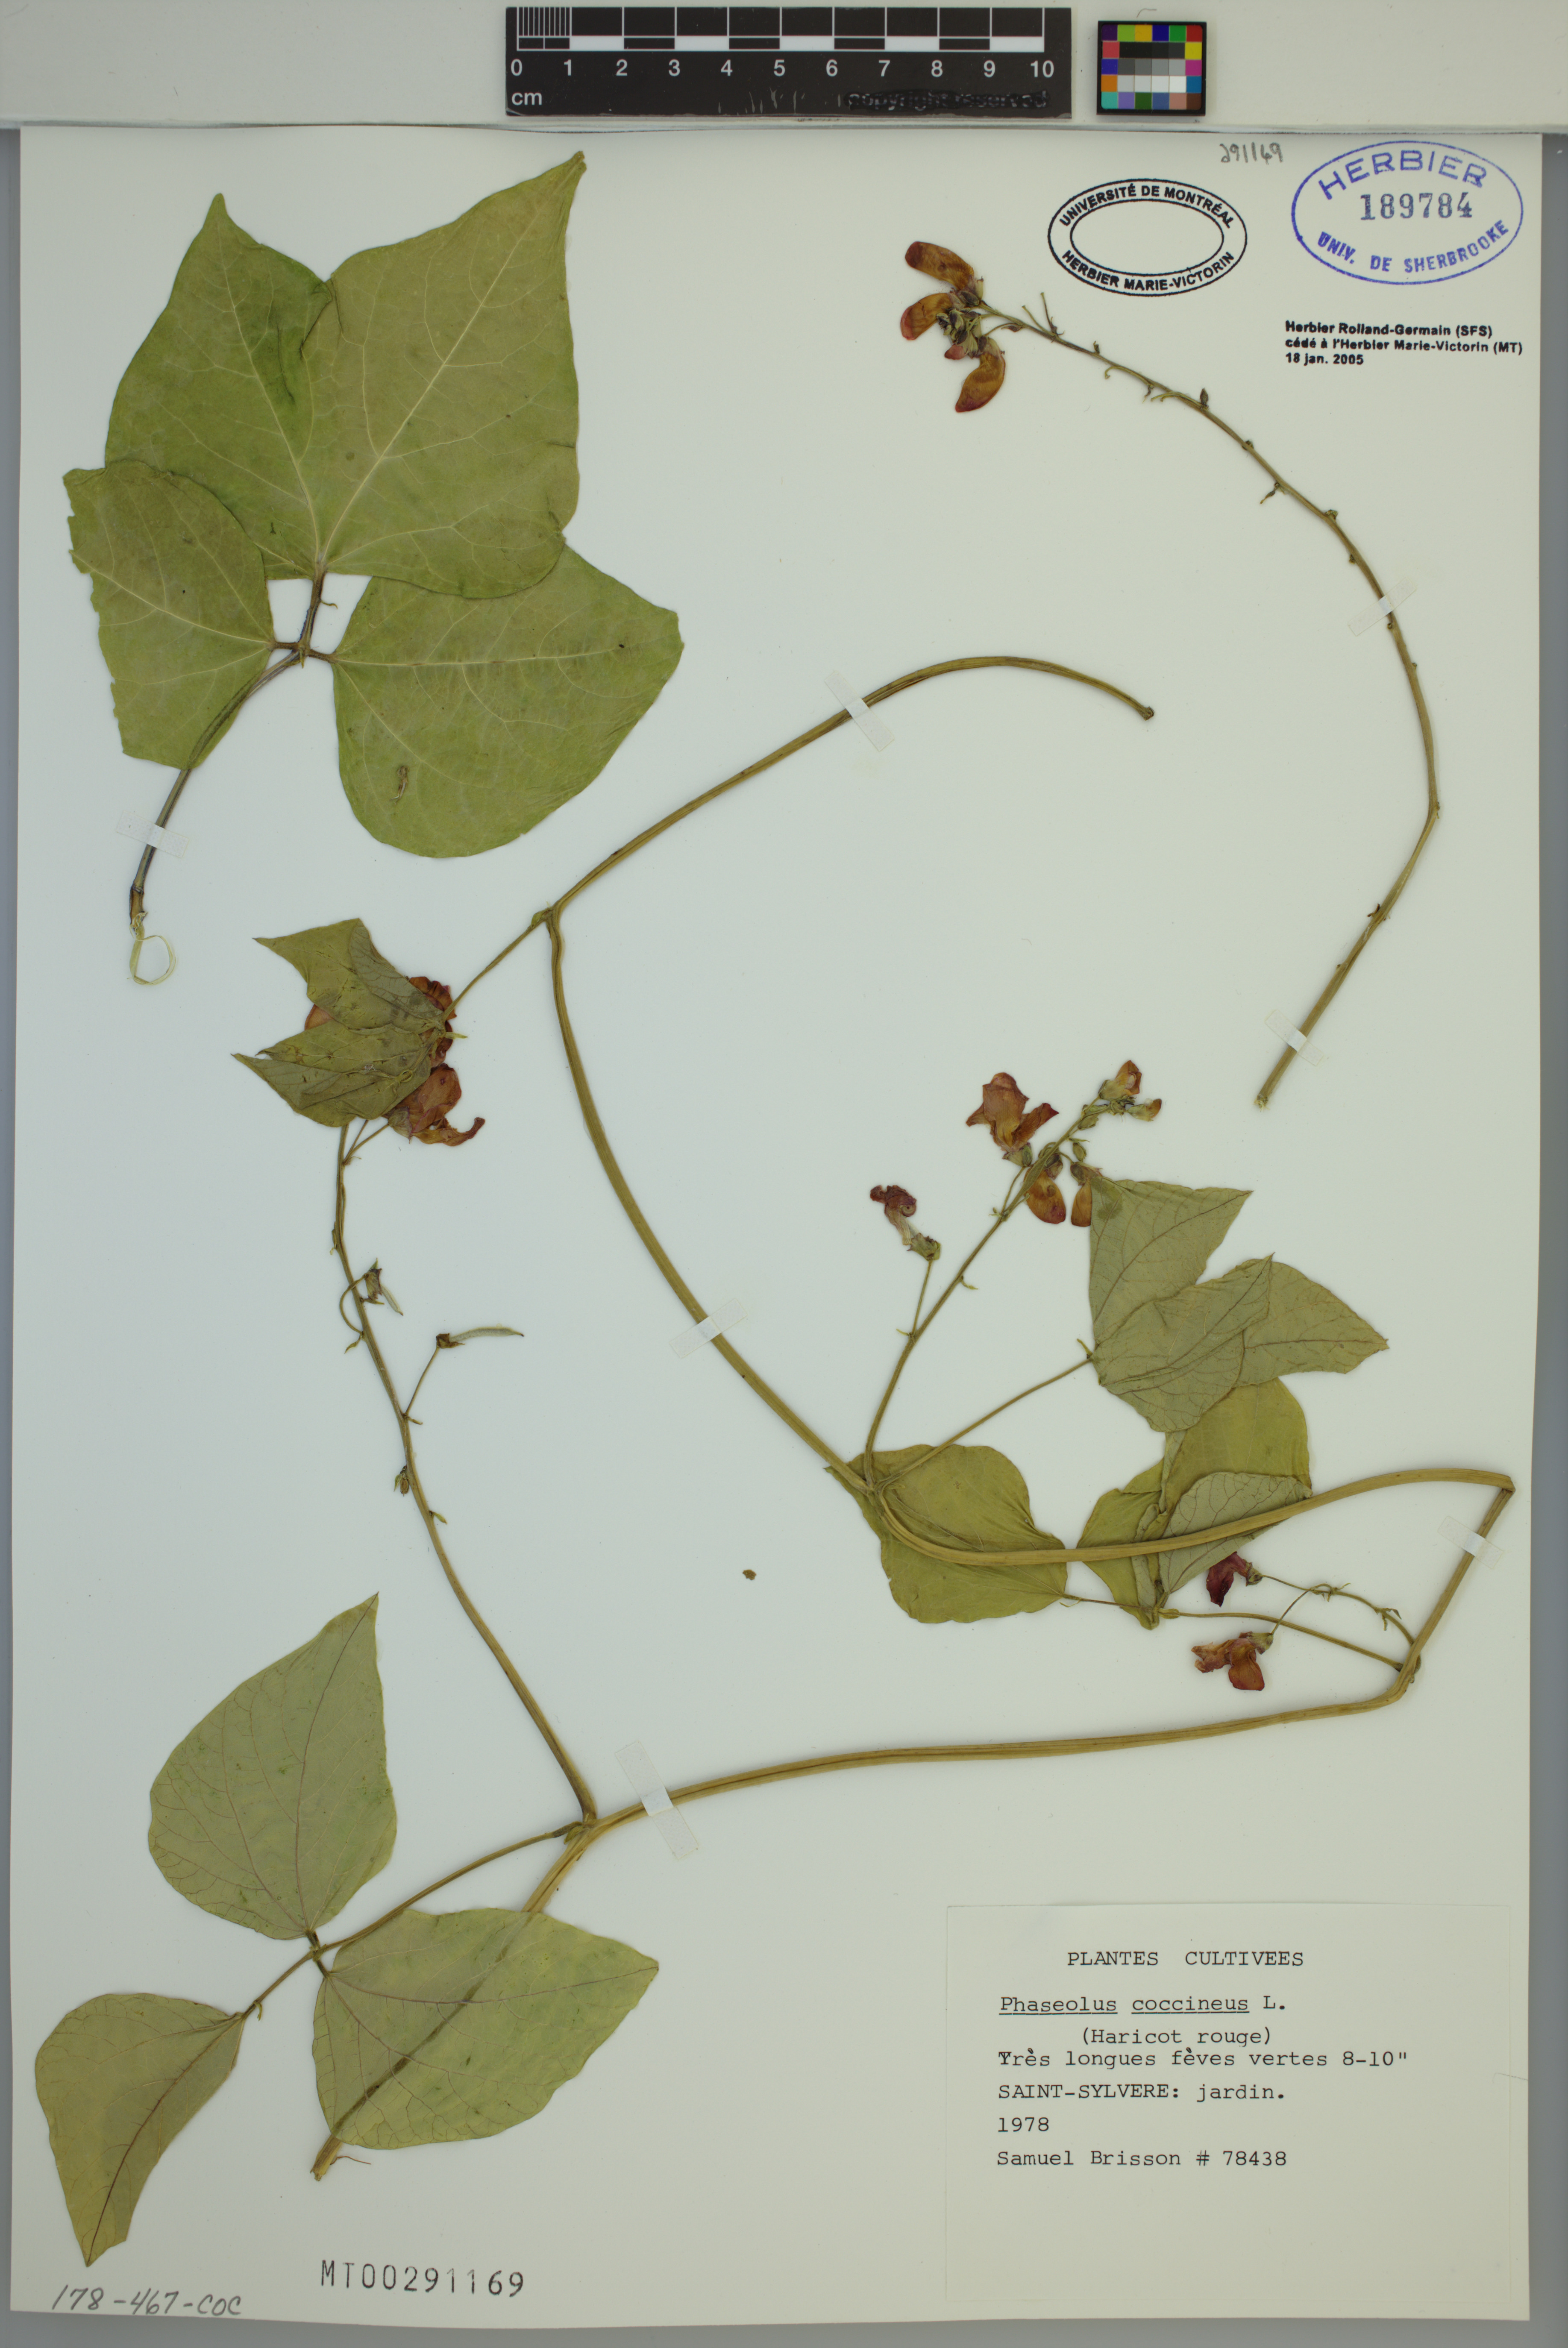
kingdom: Plantae
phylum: Tracheophyta
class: Magnoliopsida
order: Fabales
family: Fabaceae
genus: Phaseolus
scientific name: Phaseolus coccineus
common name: Runner bean
